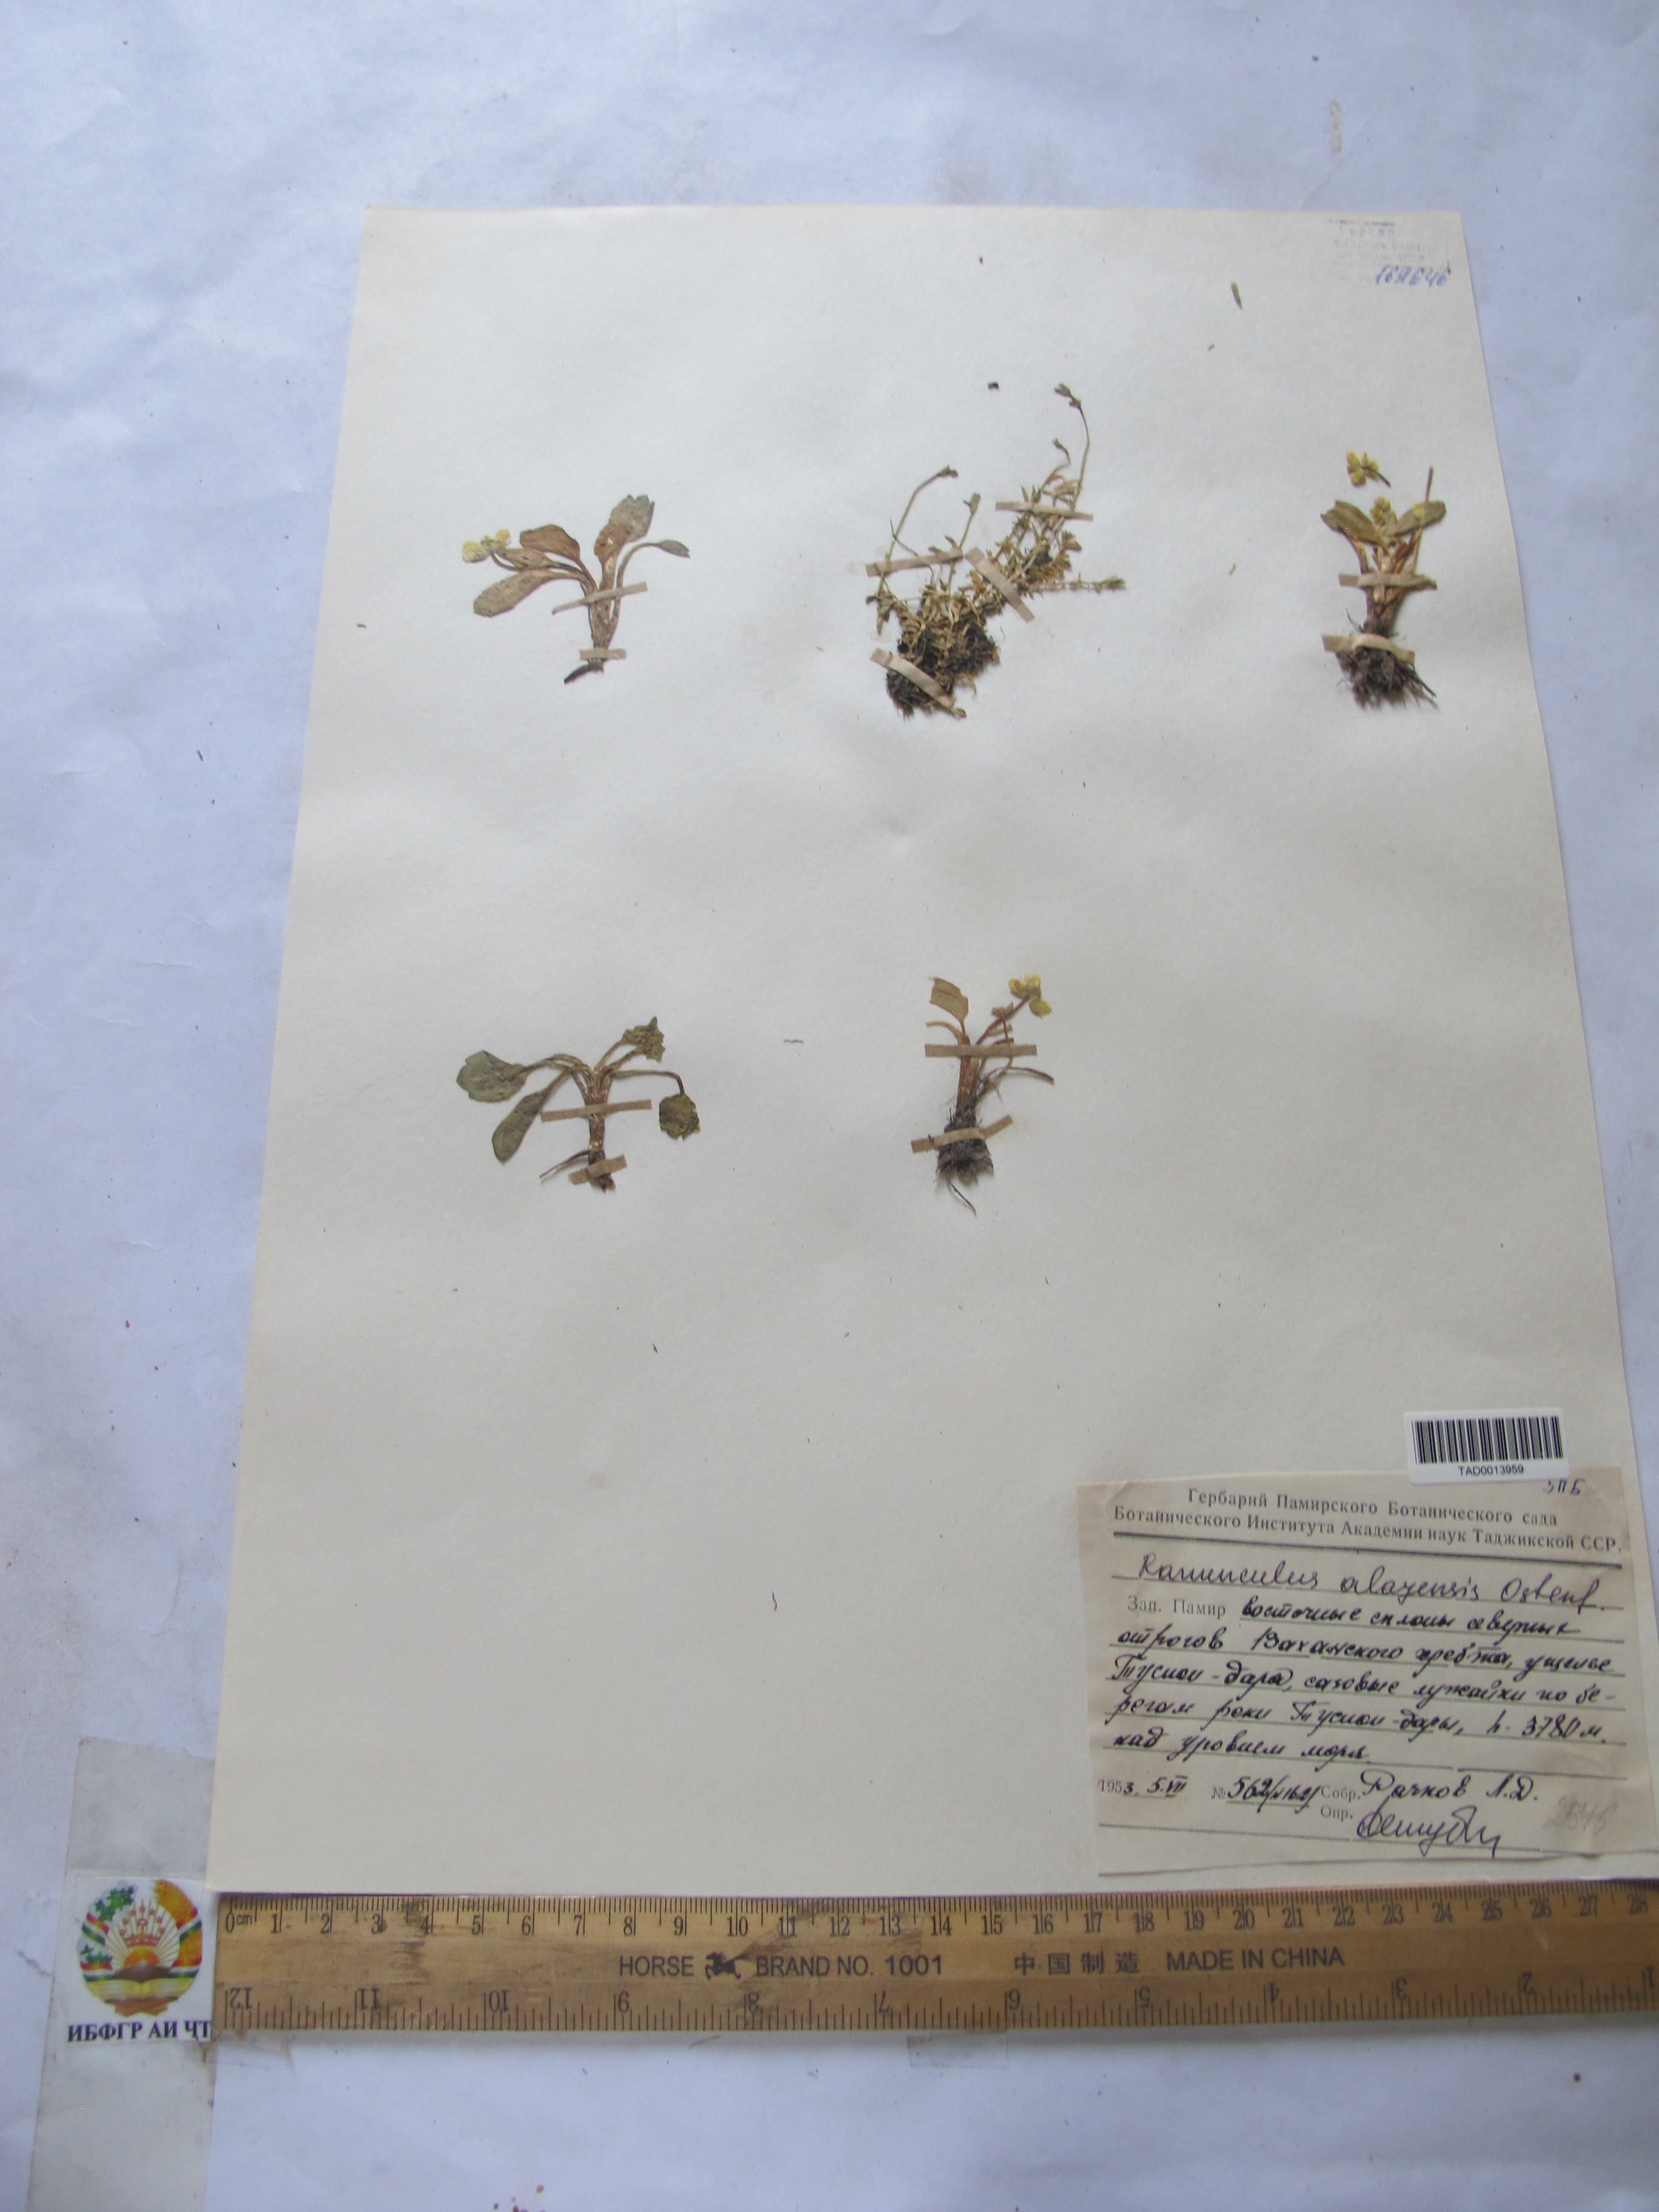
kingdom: Plantae
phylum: Tracheophyta
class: Magnoliopsida
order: Ranunculales
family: Ranunculaceae
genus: Ranunculus
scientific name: Ranunculus alaiensis
